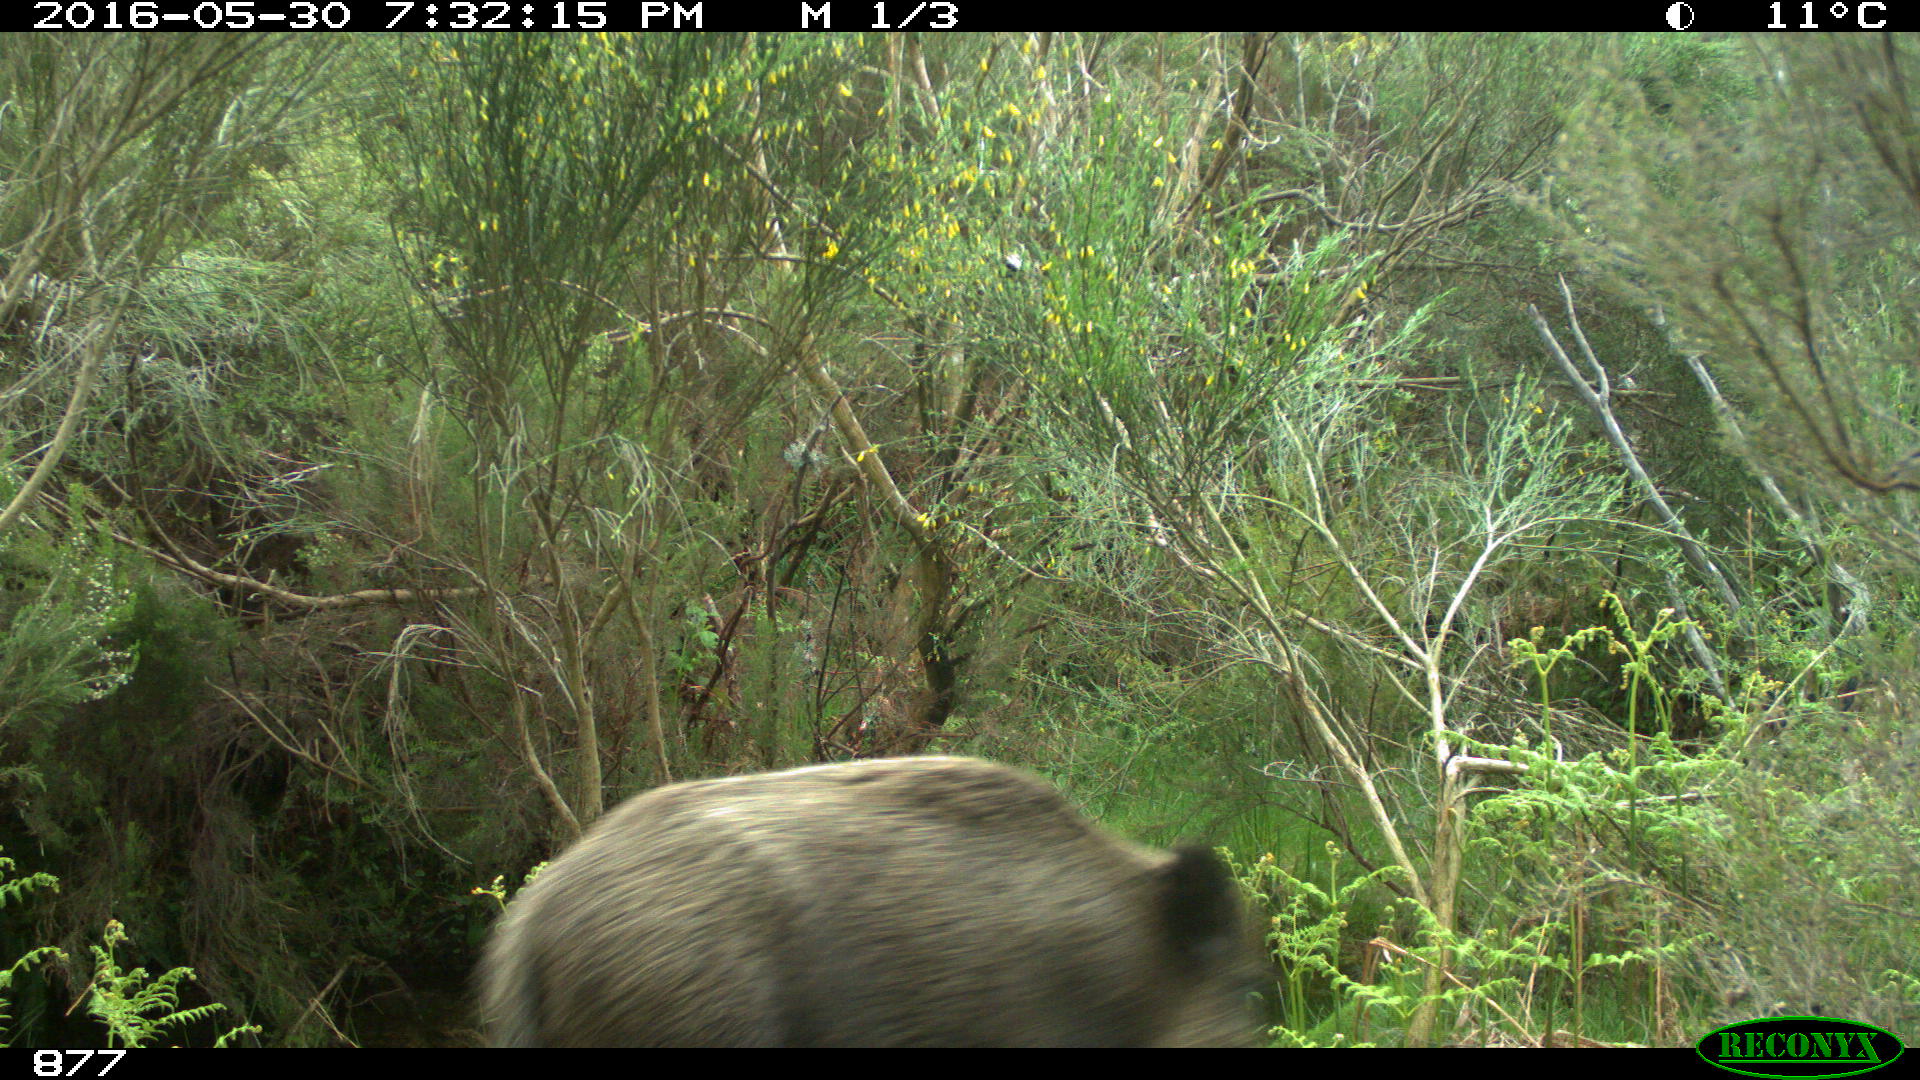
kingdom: Animalia
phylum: Chordata
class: Mammalia
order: Artiodactyla
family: Suidae
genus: Sus
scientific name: Sus scrofa
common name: Wild boar
